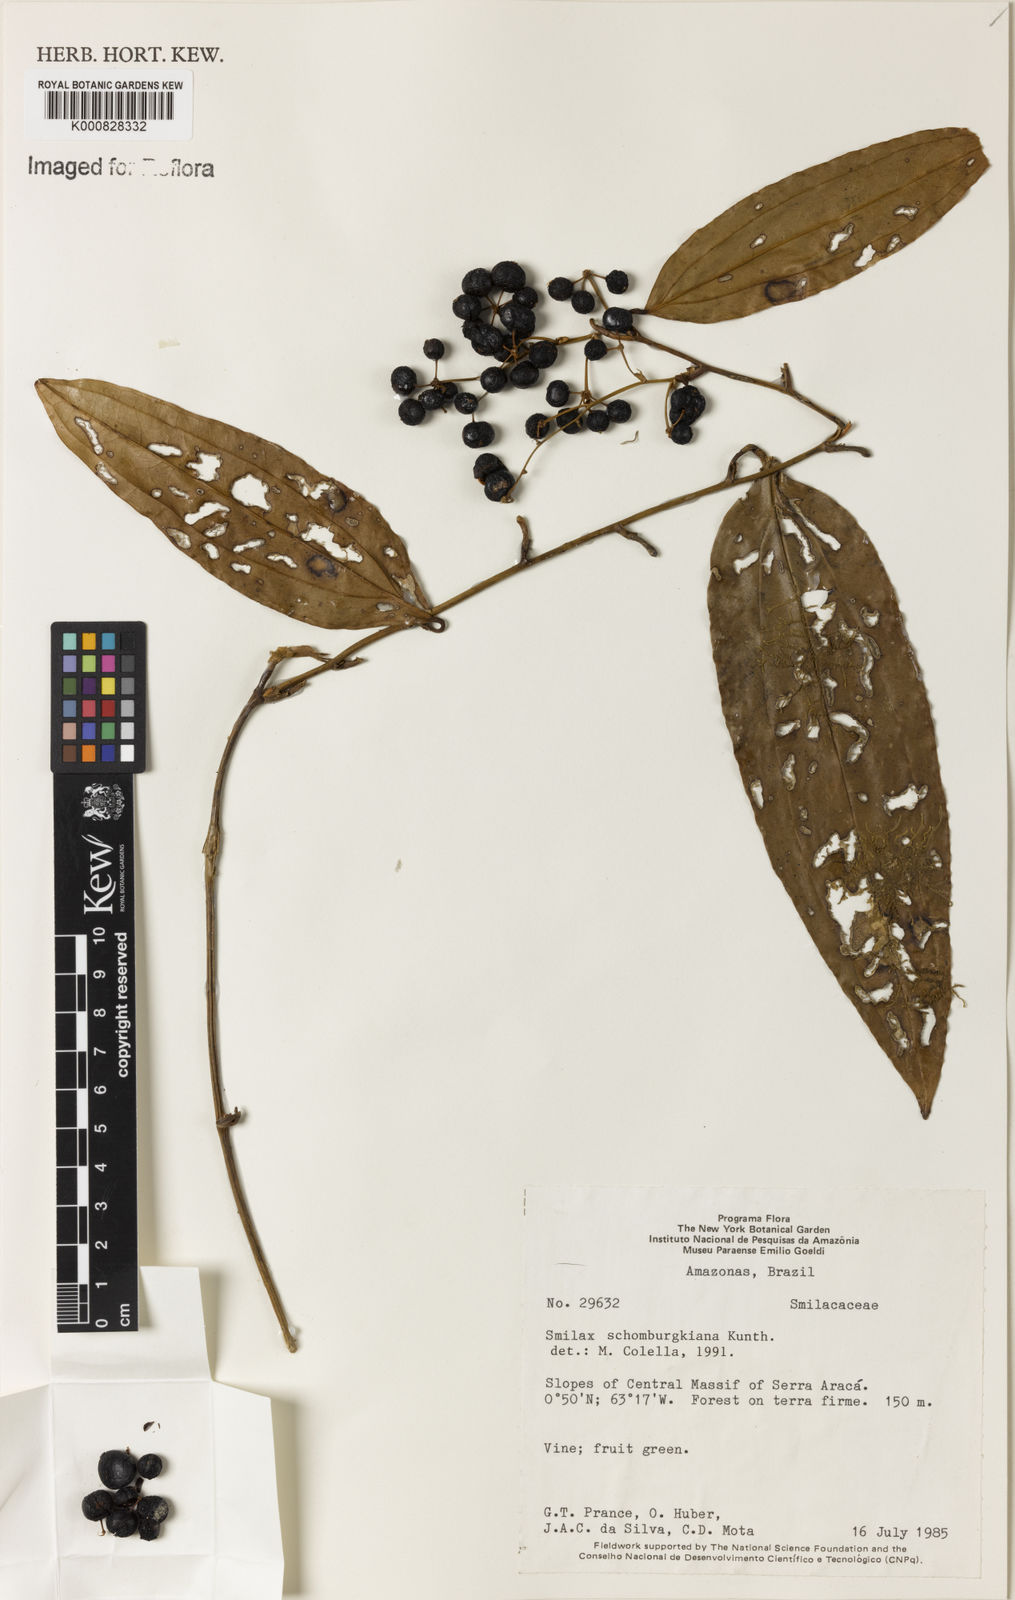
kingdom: Plantae
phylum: Tracheophyta
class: Liliopsida
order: Liliales
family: Smilacaceae
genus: Smilax
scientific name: Smilax schomburgkiana
